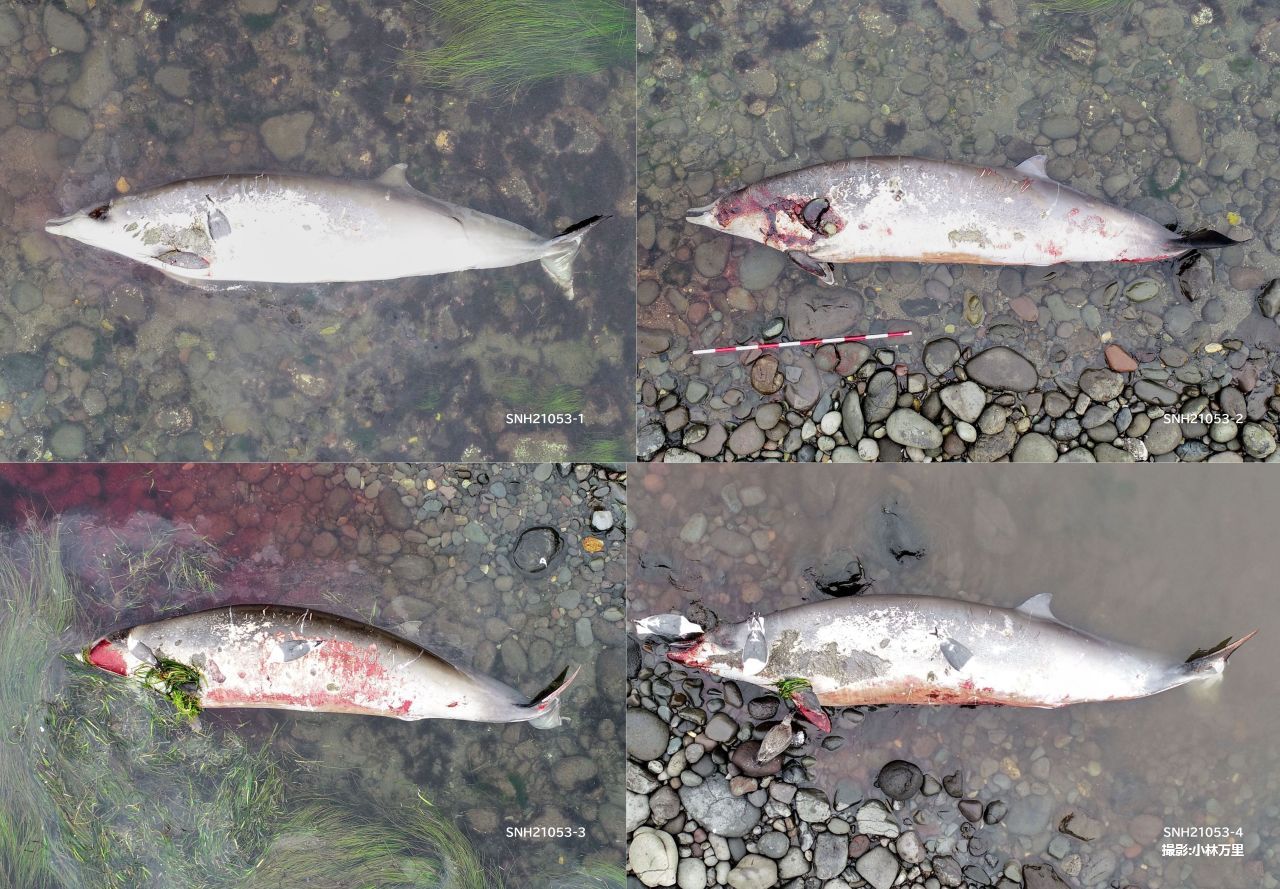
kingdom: Animalia
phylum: Chordata
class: Mammalia
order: Cetacea
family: Hyperoodontidae
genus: Mesoplodon
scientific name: Mesoplodon stejnegeri
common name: Stejneger's beaked whale
